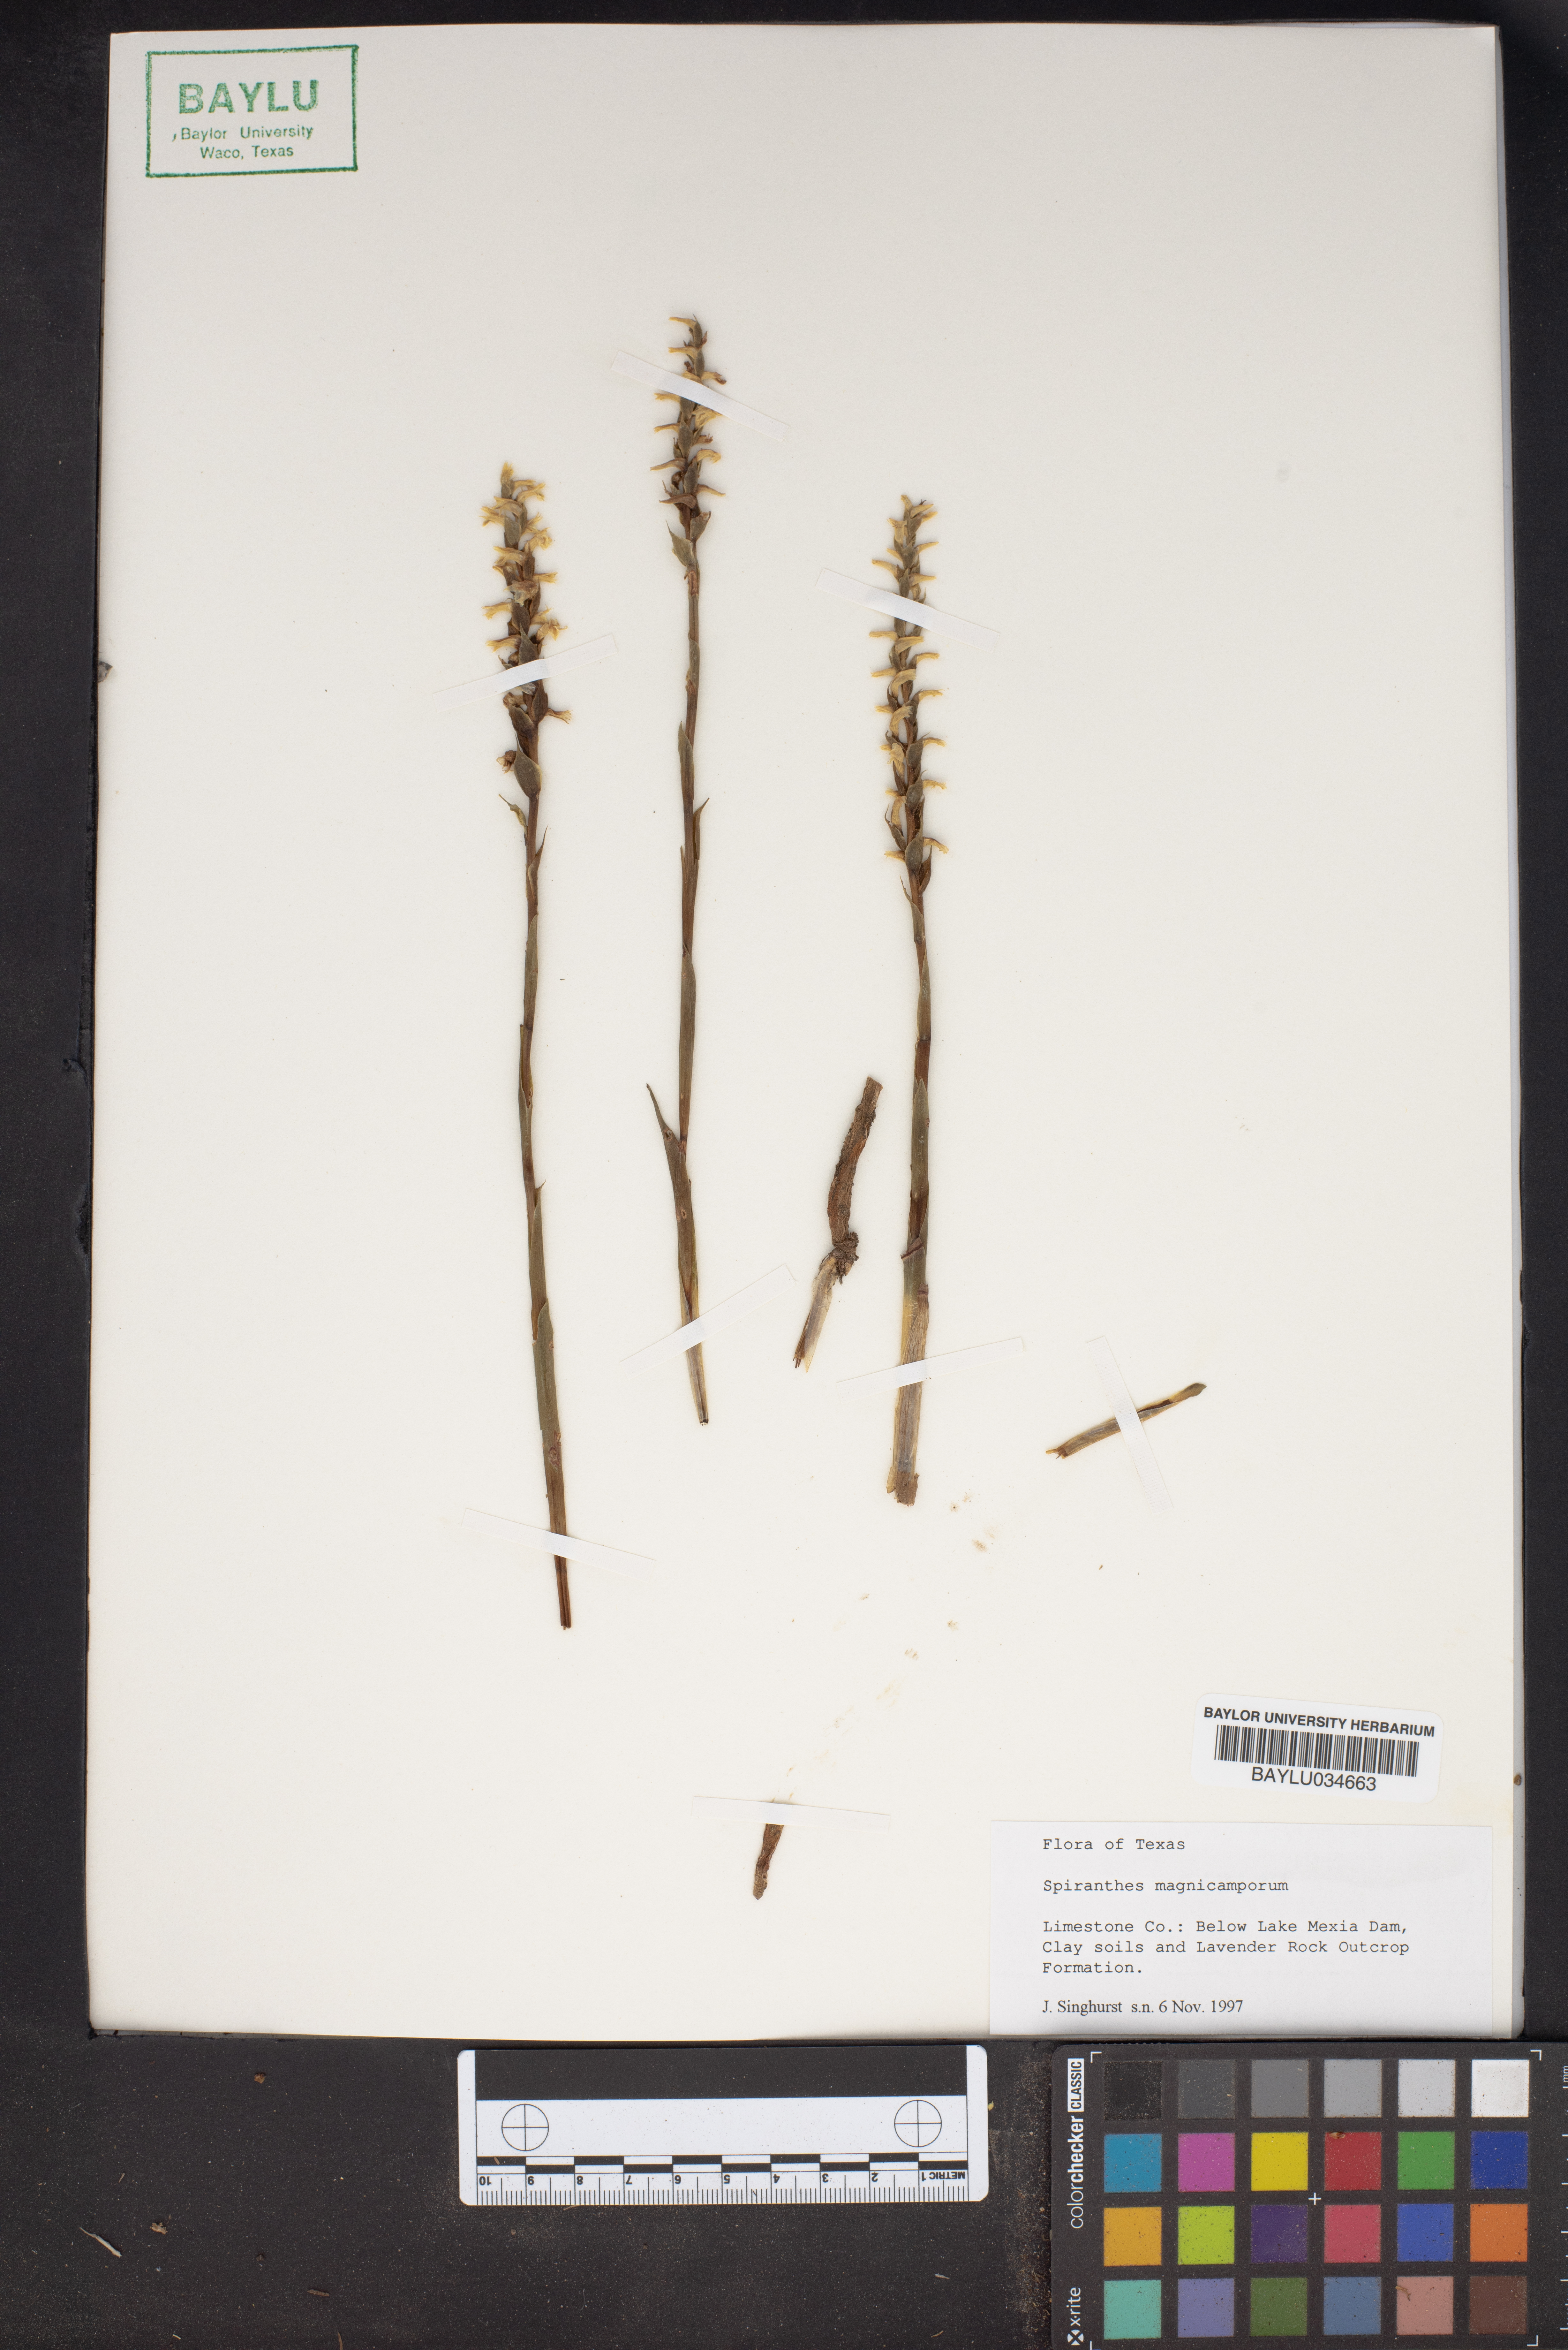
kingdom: Plantae
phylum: Tracheophyta
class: Liliopsida
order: Asparagales
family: Orchidaceae
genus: Spiranthes
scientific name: Spiranthes magnicamporum
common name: Great plains ladies'-tresses
